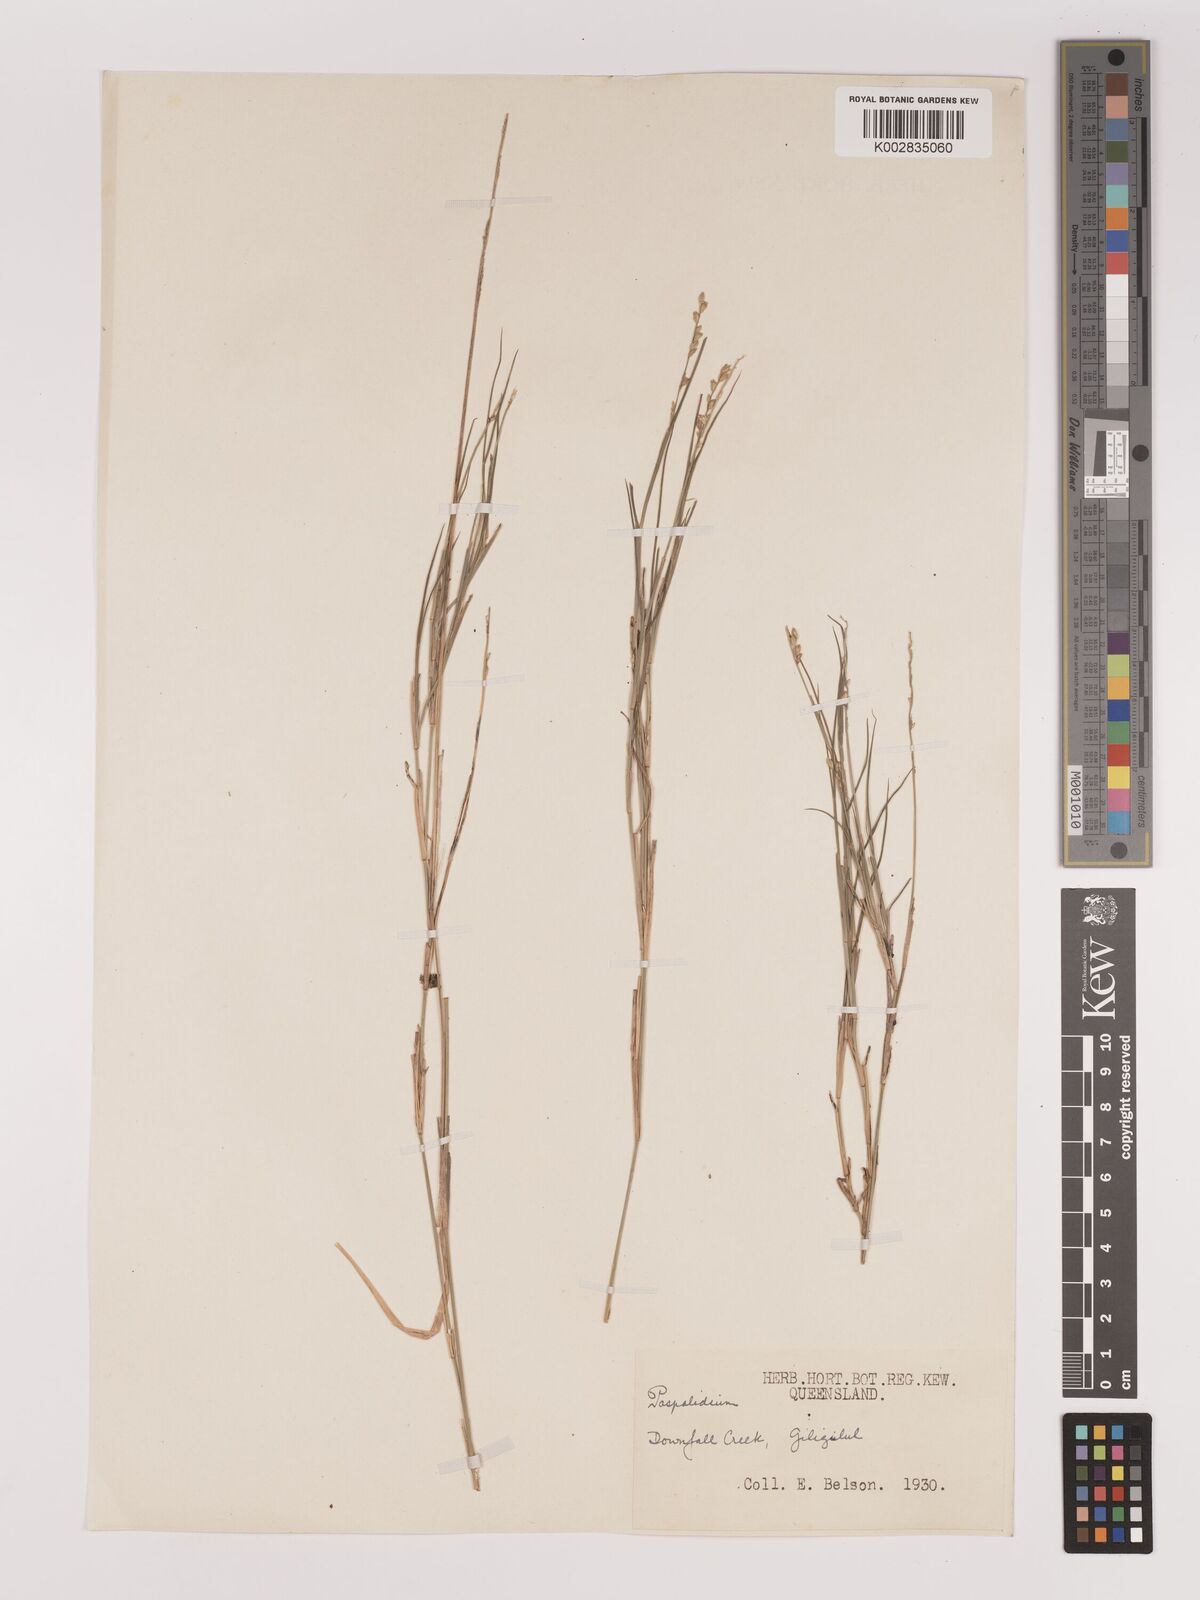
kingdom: Plantae
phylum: Tracheophyta
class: Liliopsida
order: Poales
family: Poaceae
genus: Setaria
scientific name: Setaria
